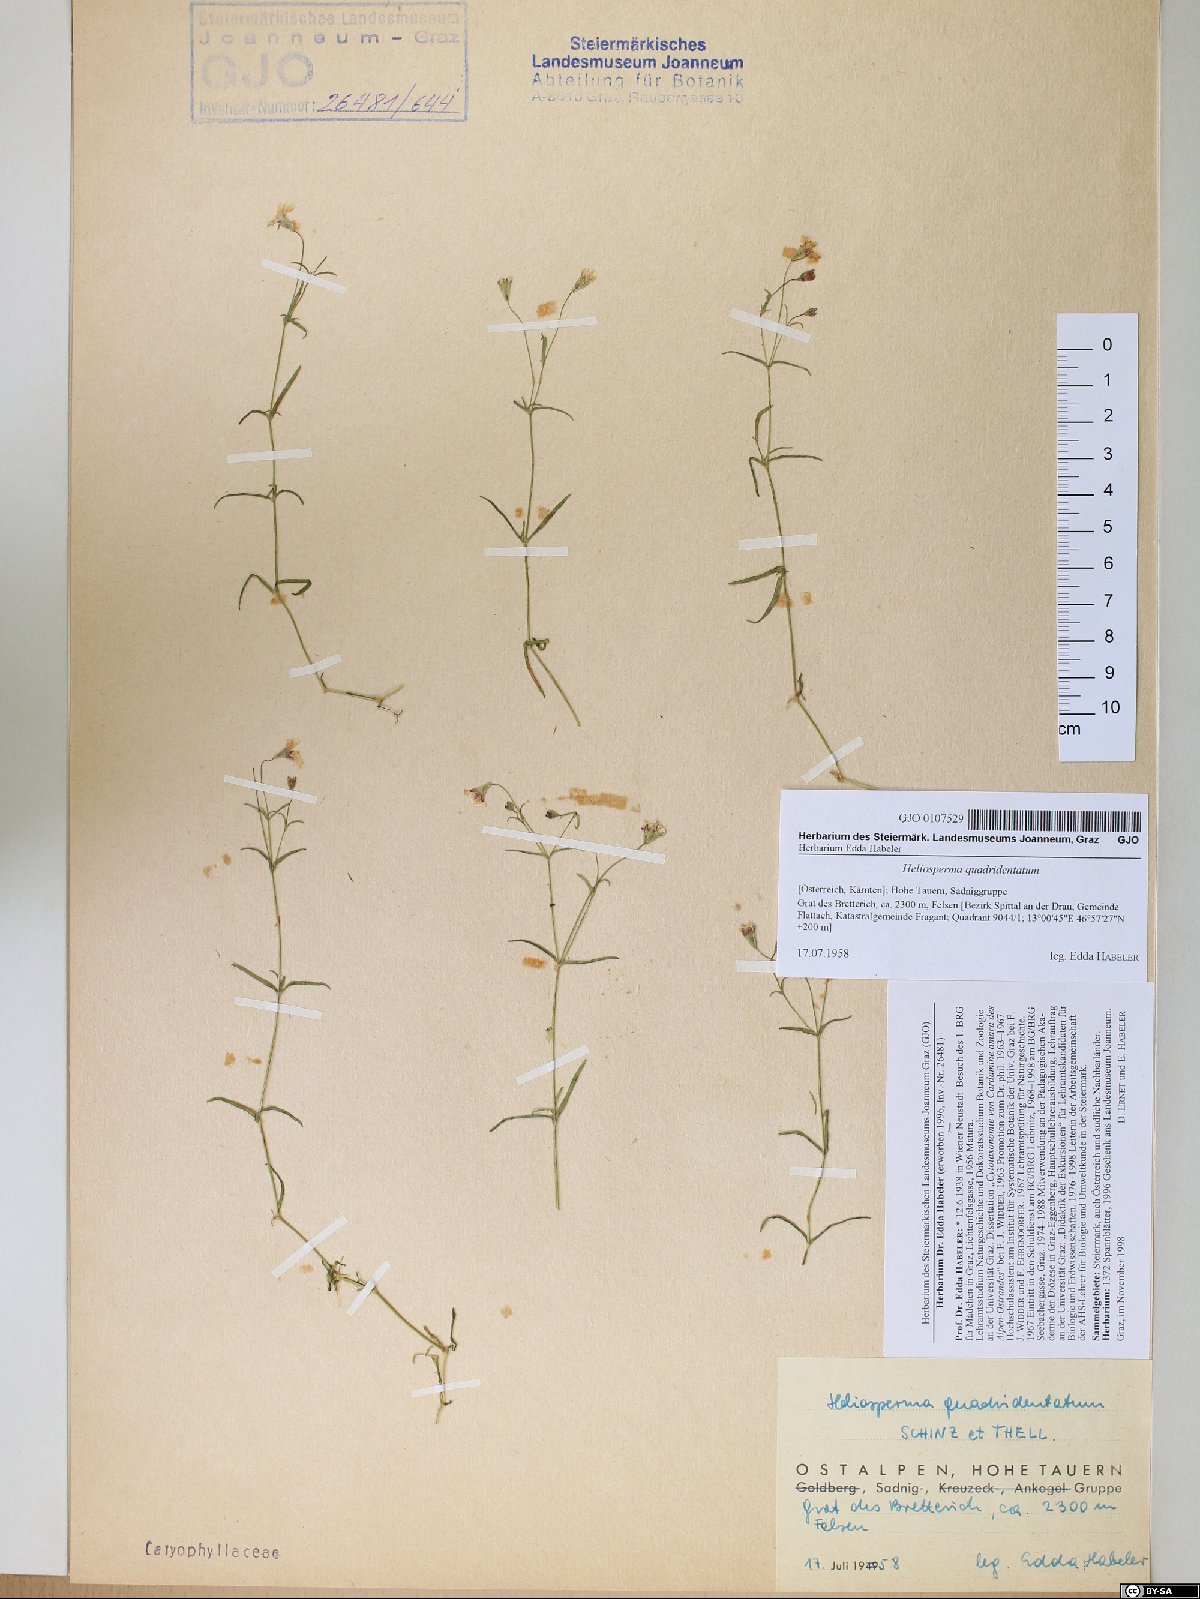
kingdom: Plantae
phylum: Tracheophyta
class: Magnoliopsida
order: Caryophyllales
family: Caryophyllaceae
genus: Heliosperma
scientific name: Heliosperma alpestre
